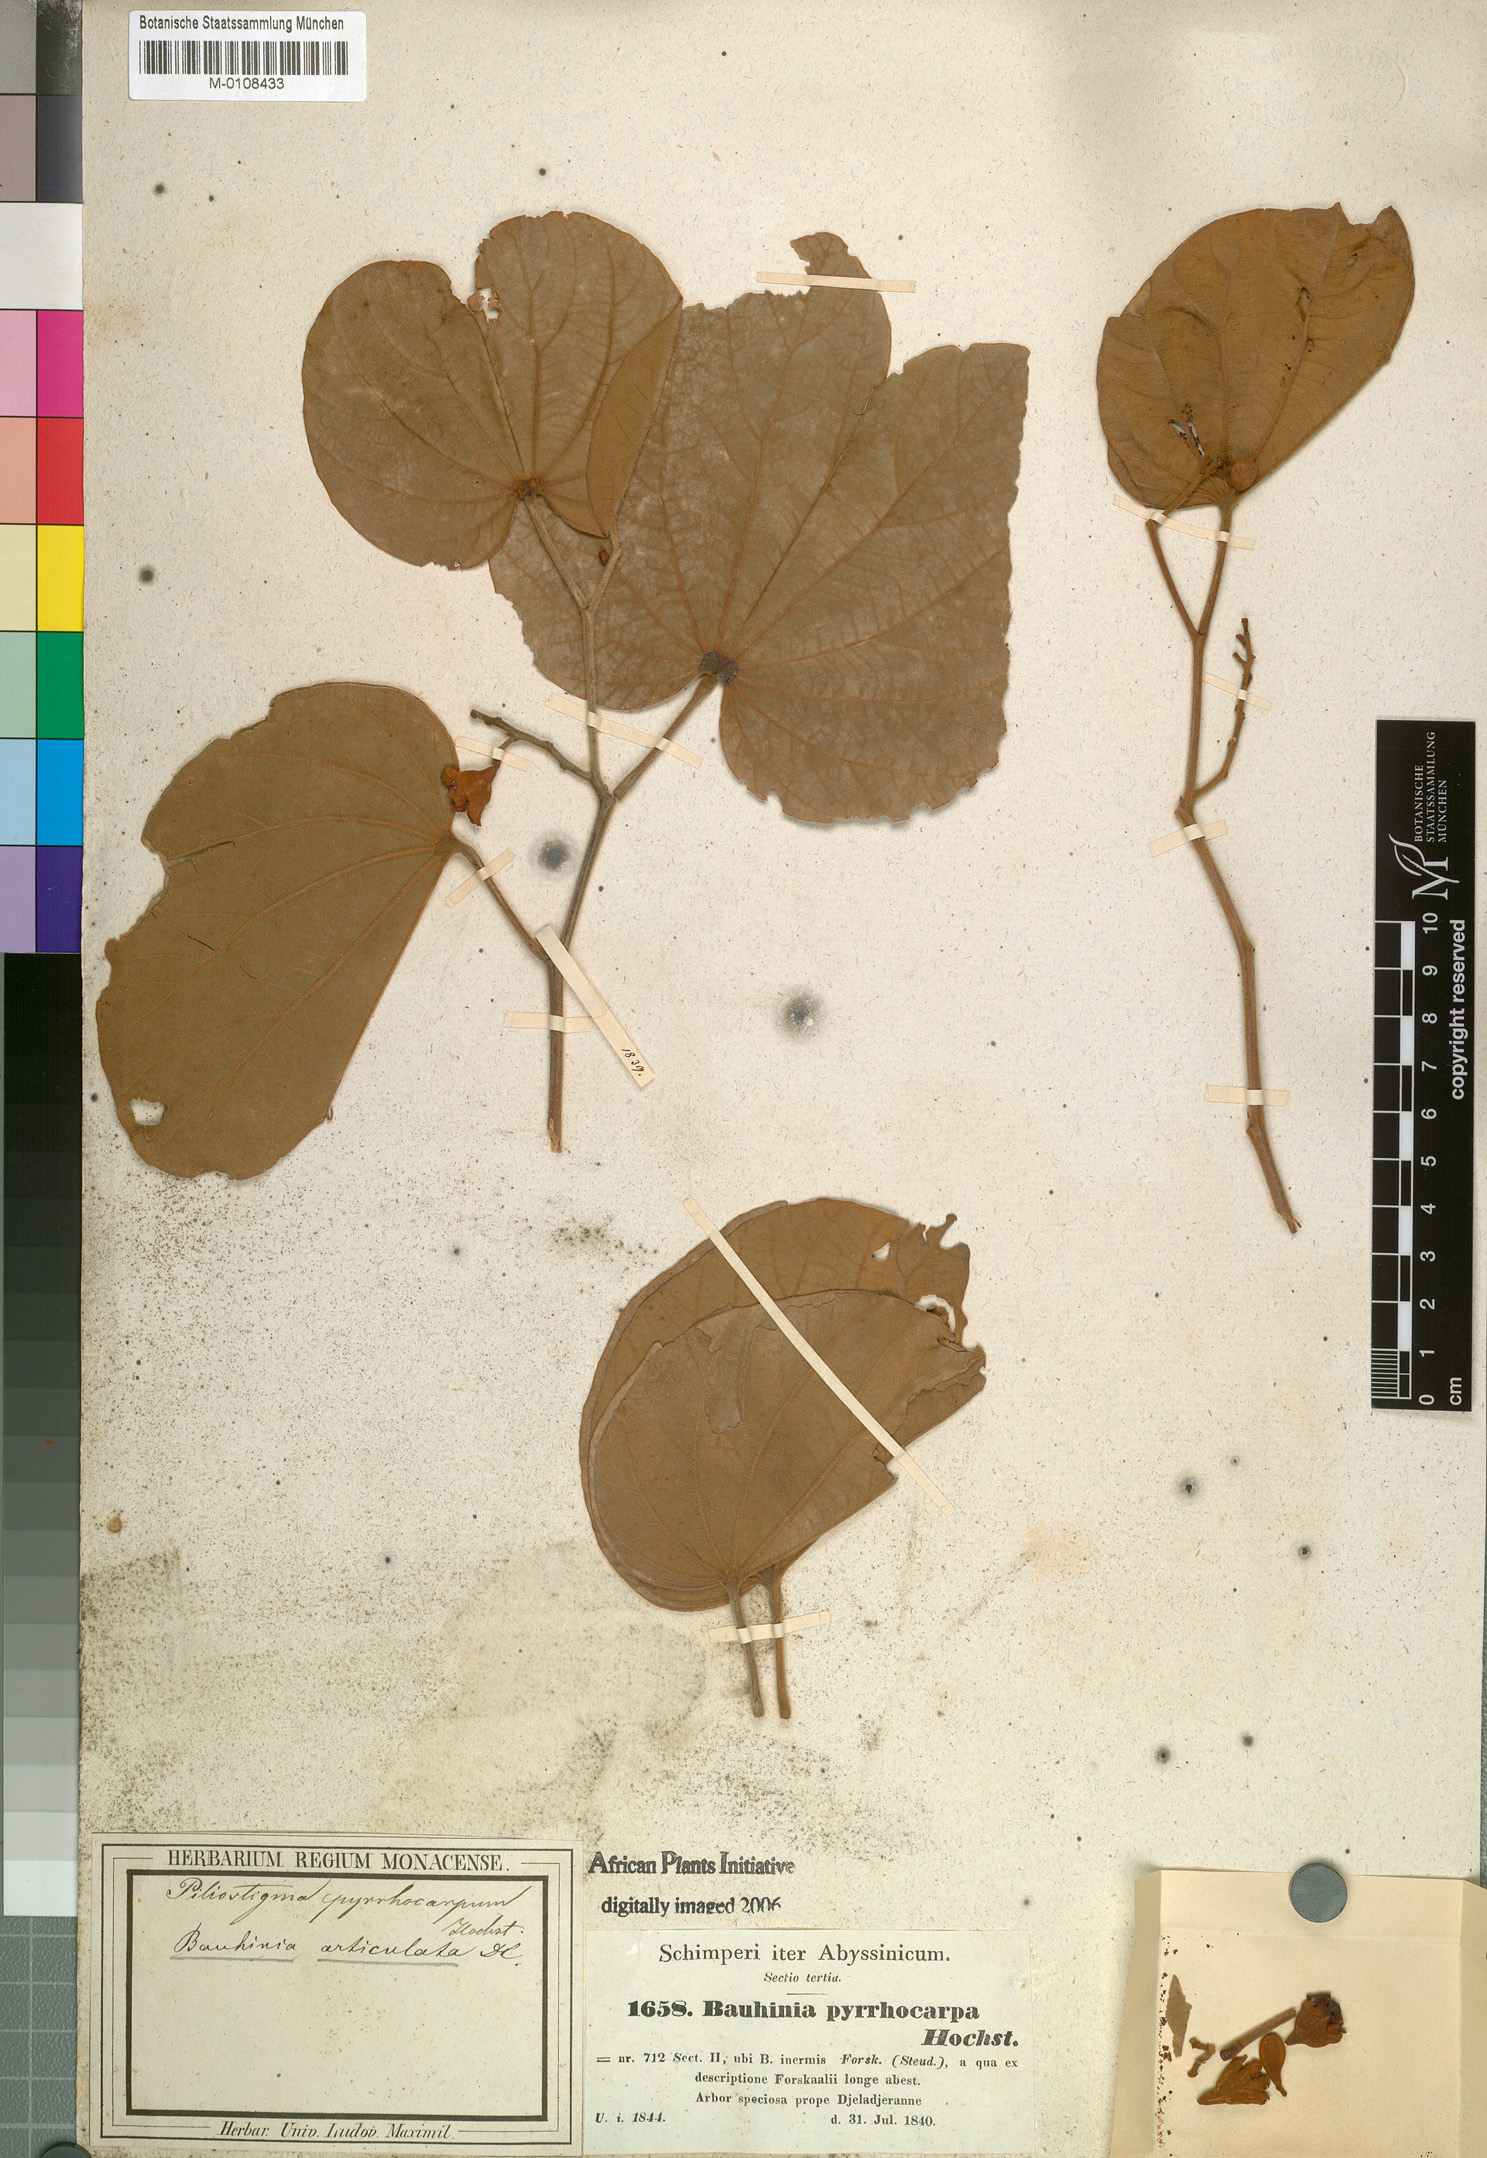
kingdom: Plantae
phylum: Tracheophyta
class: Magnoliopsida
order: Fabales
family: Fabaceae
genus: Piliostigma
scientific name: Piliostigma thonningii
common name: Kao
